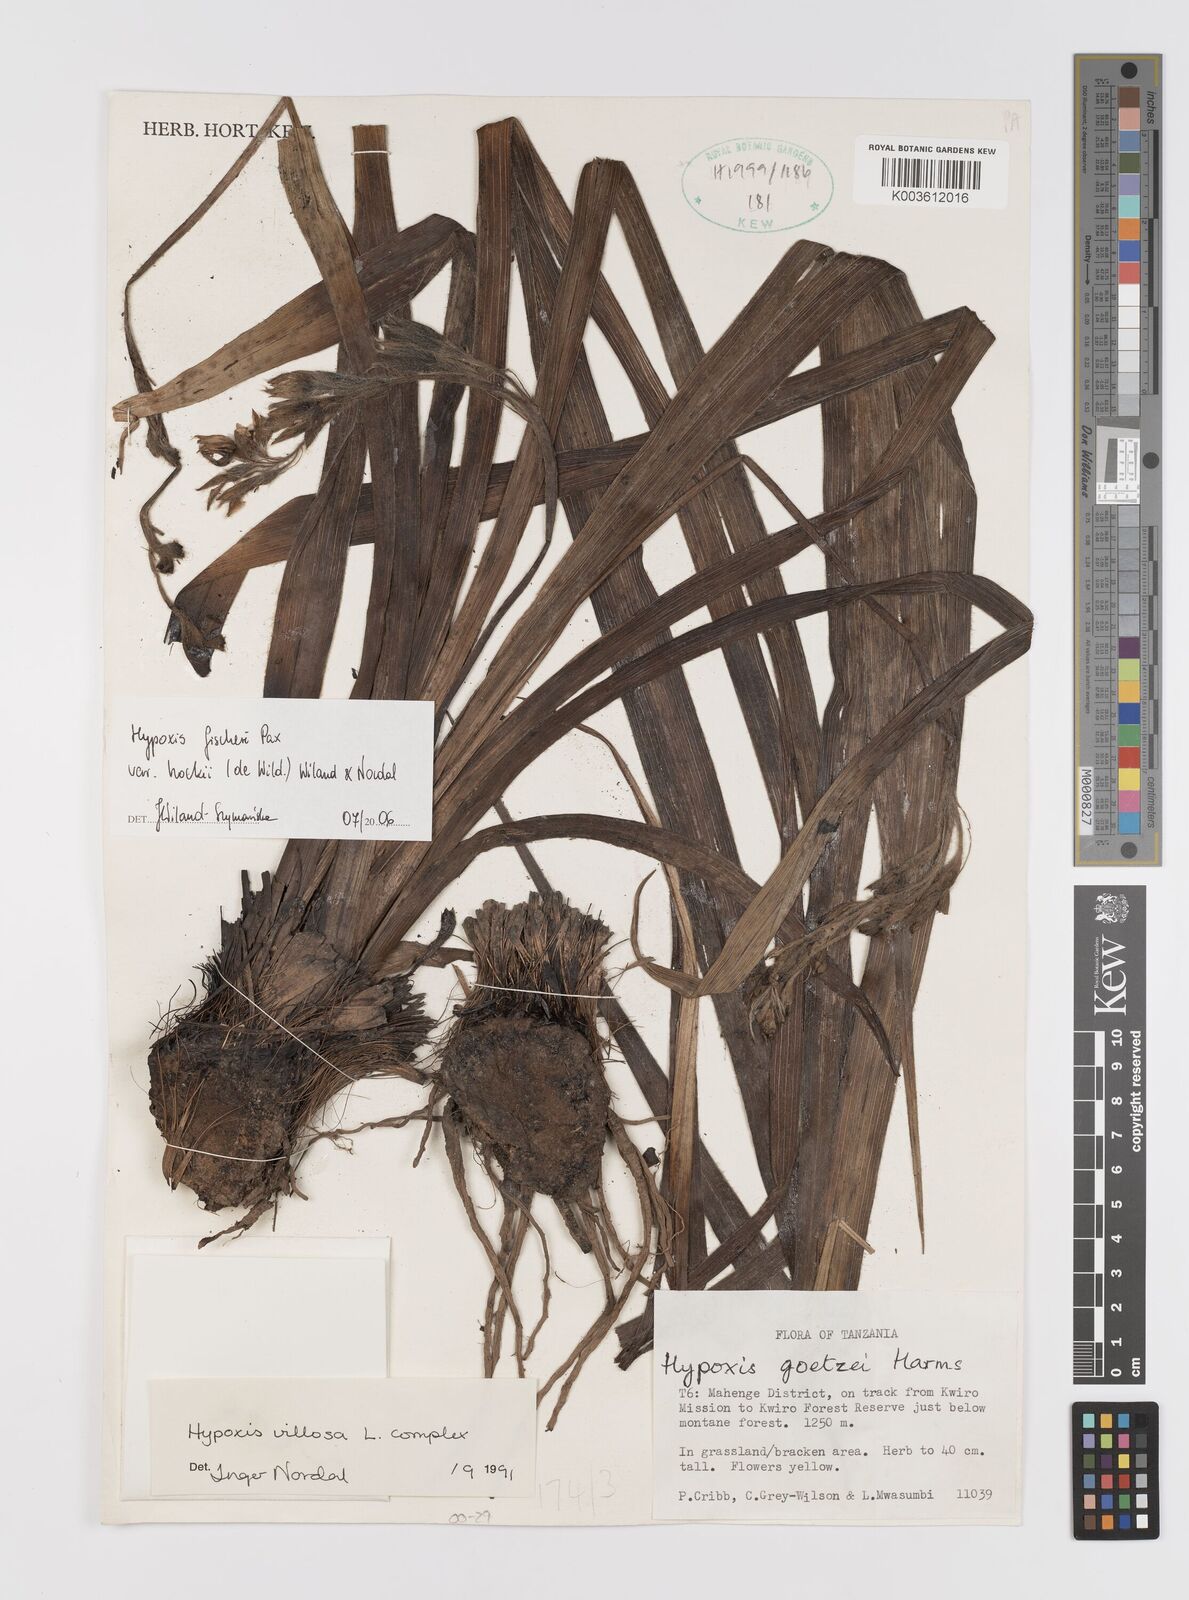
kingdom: Plantae
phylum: Tracheophyta
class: Liliopsida
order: Asparagales
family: Hypoxidaceae
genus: Hypoxis
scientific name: Hypoxis fischeri
